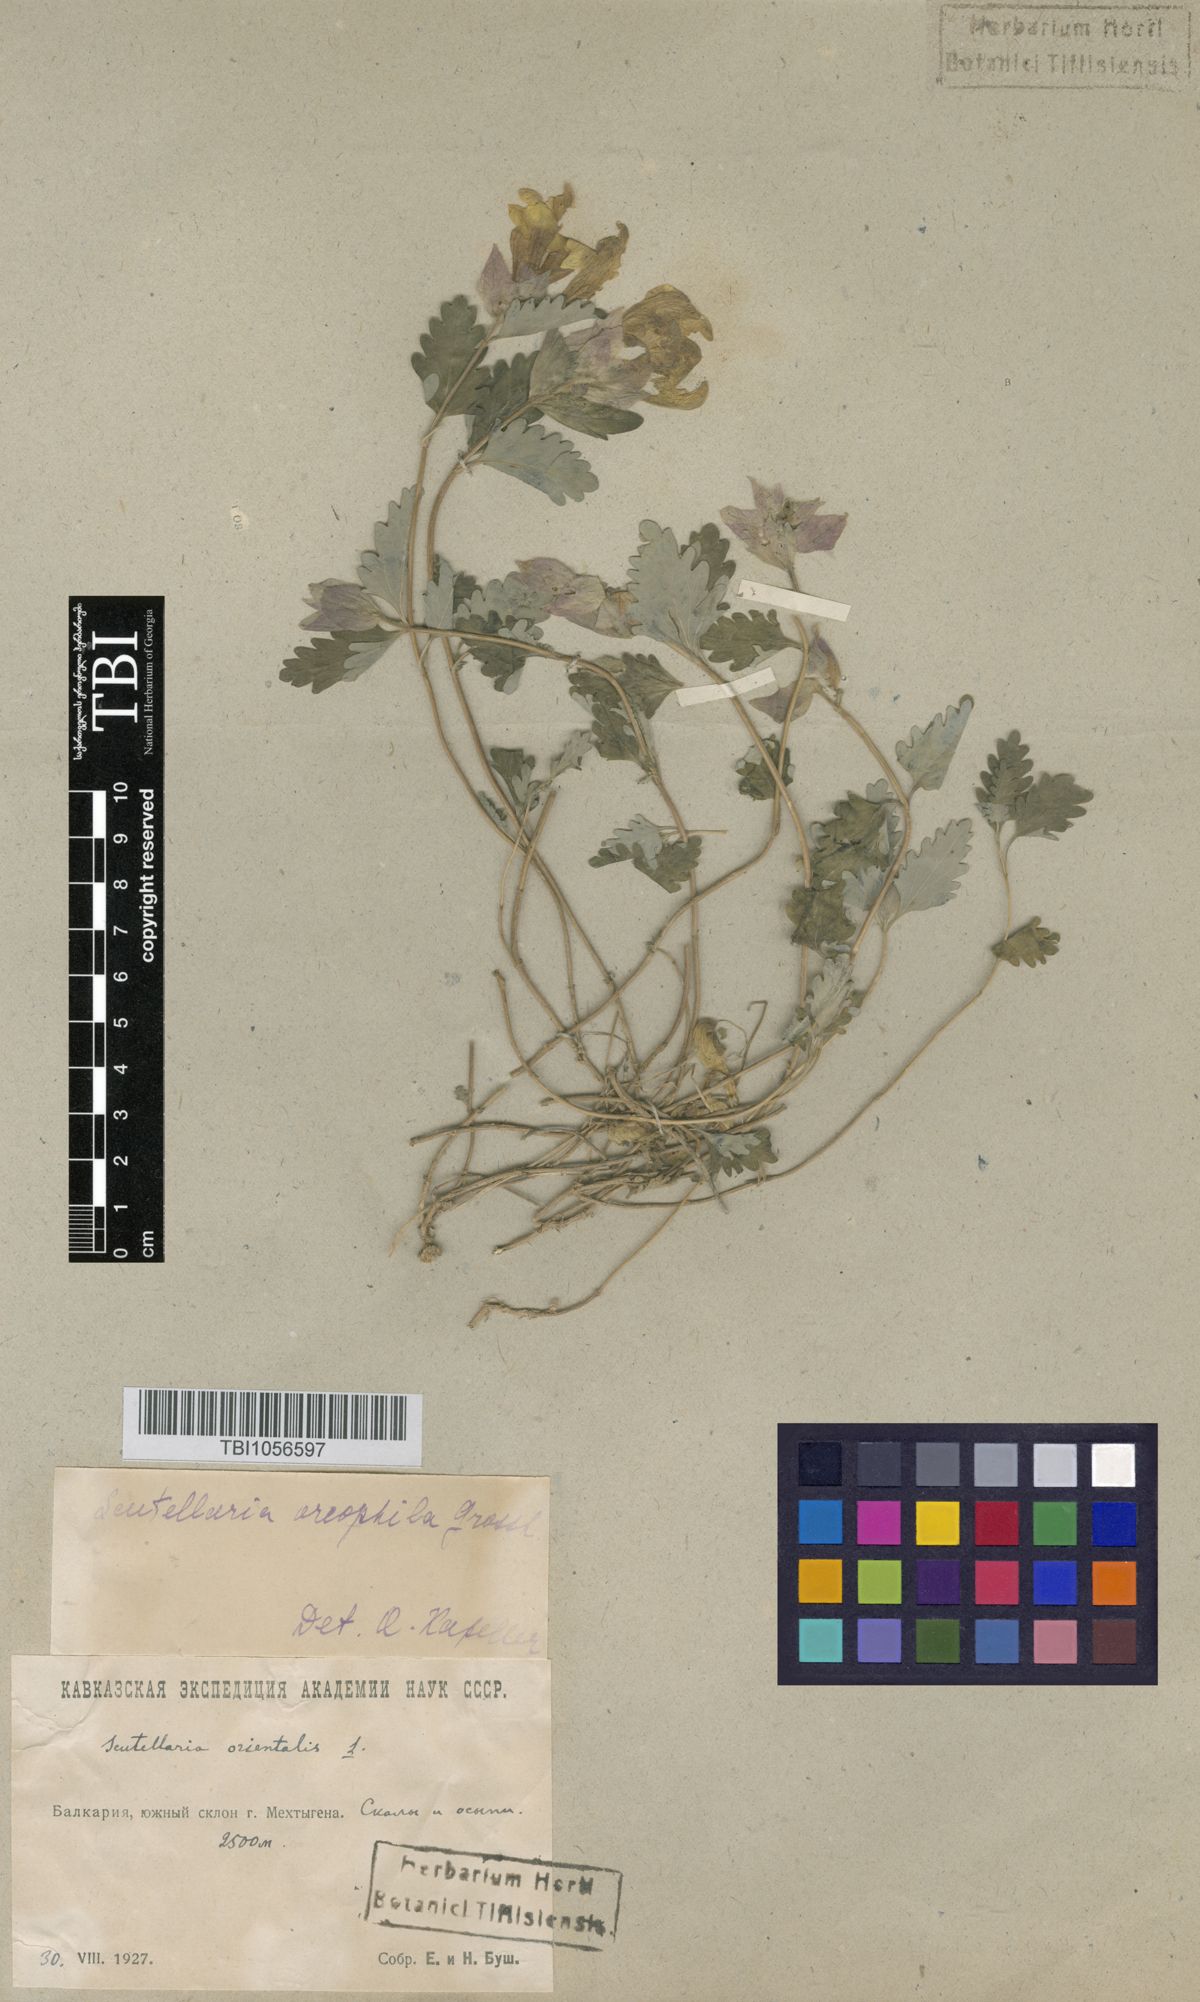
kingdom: Plantae
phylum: Tracheophyta
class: Magnoliopsida
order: Lamiales
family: Lamiaceae
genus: Scutellaria
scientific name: Scutellaria oreophila
